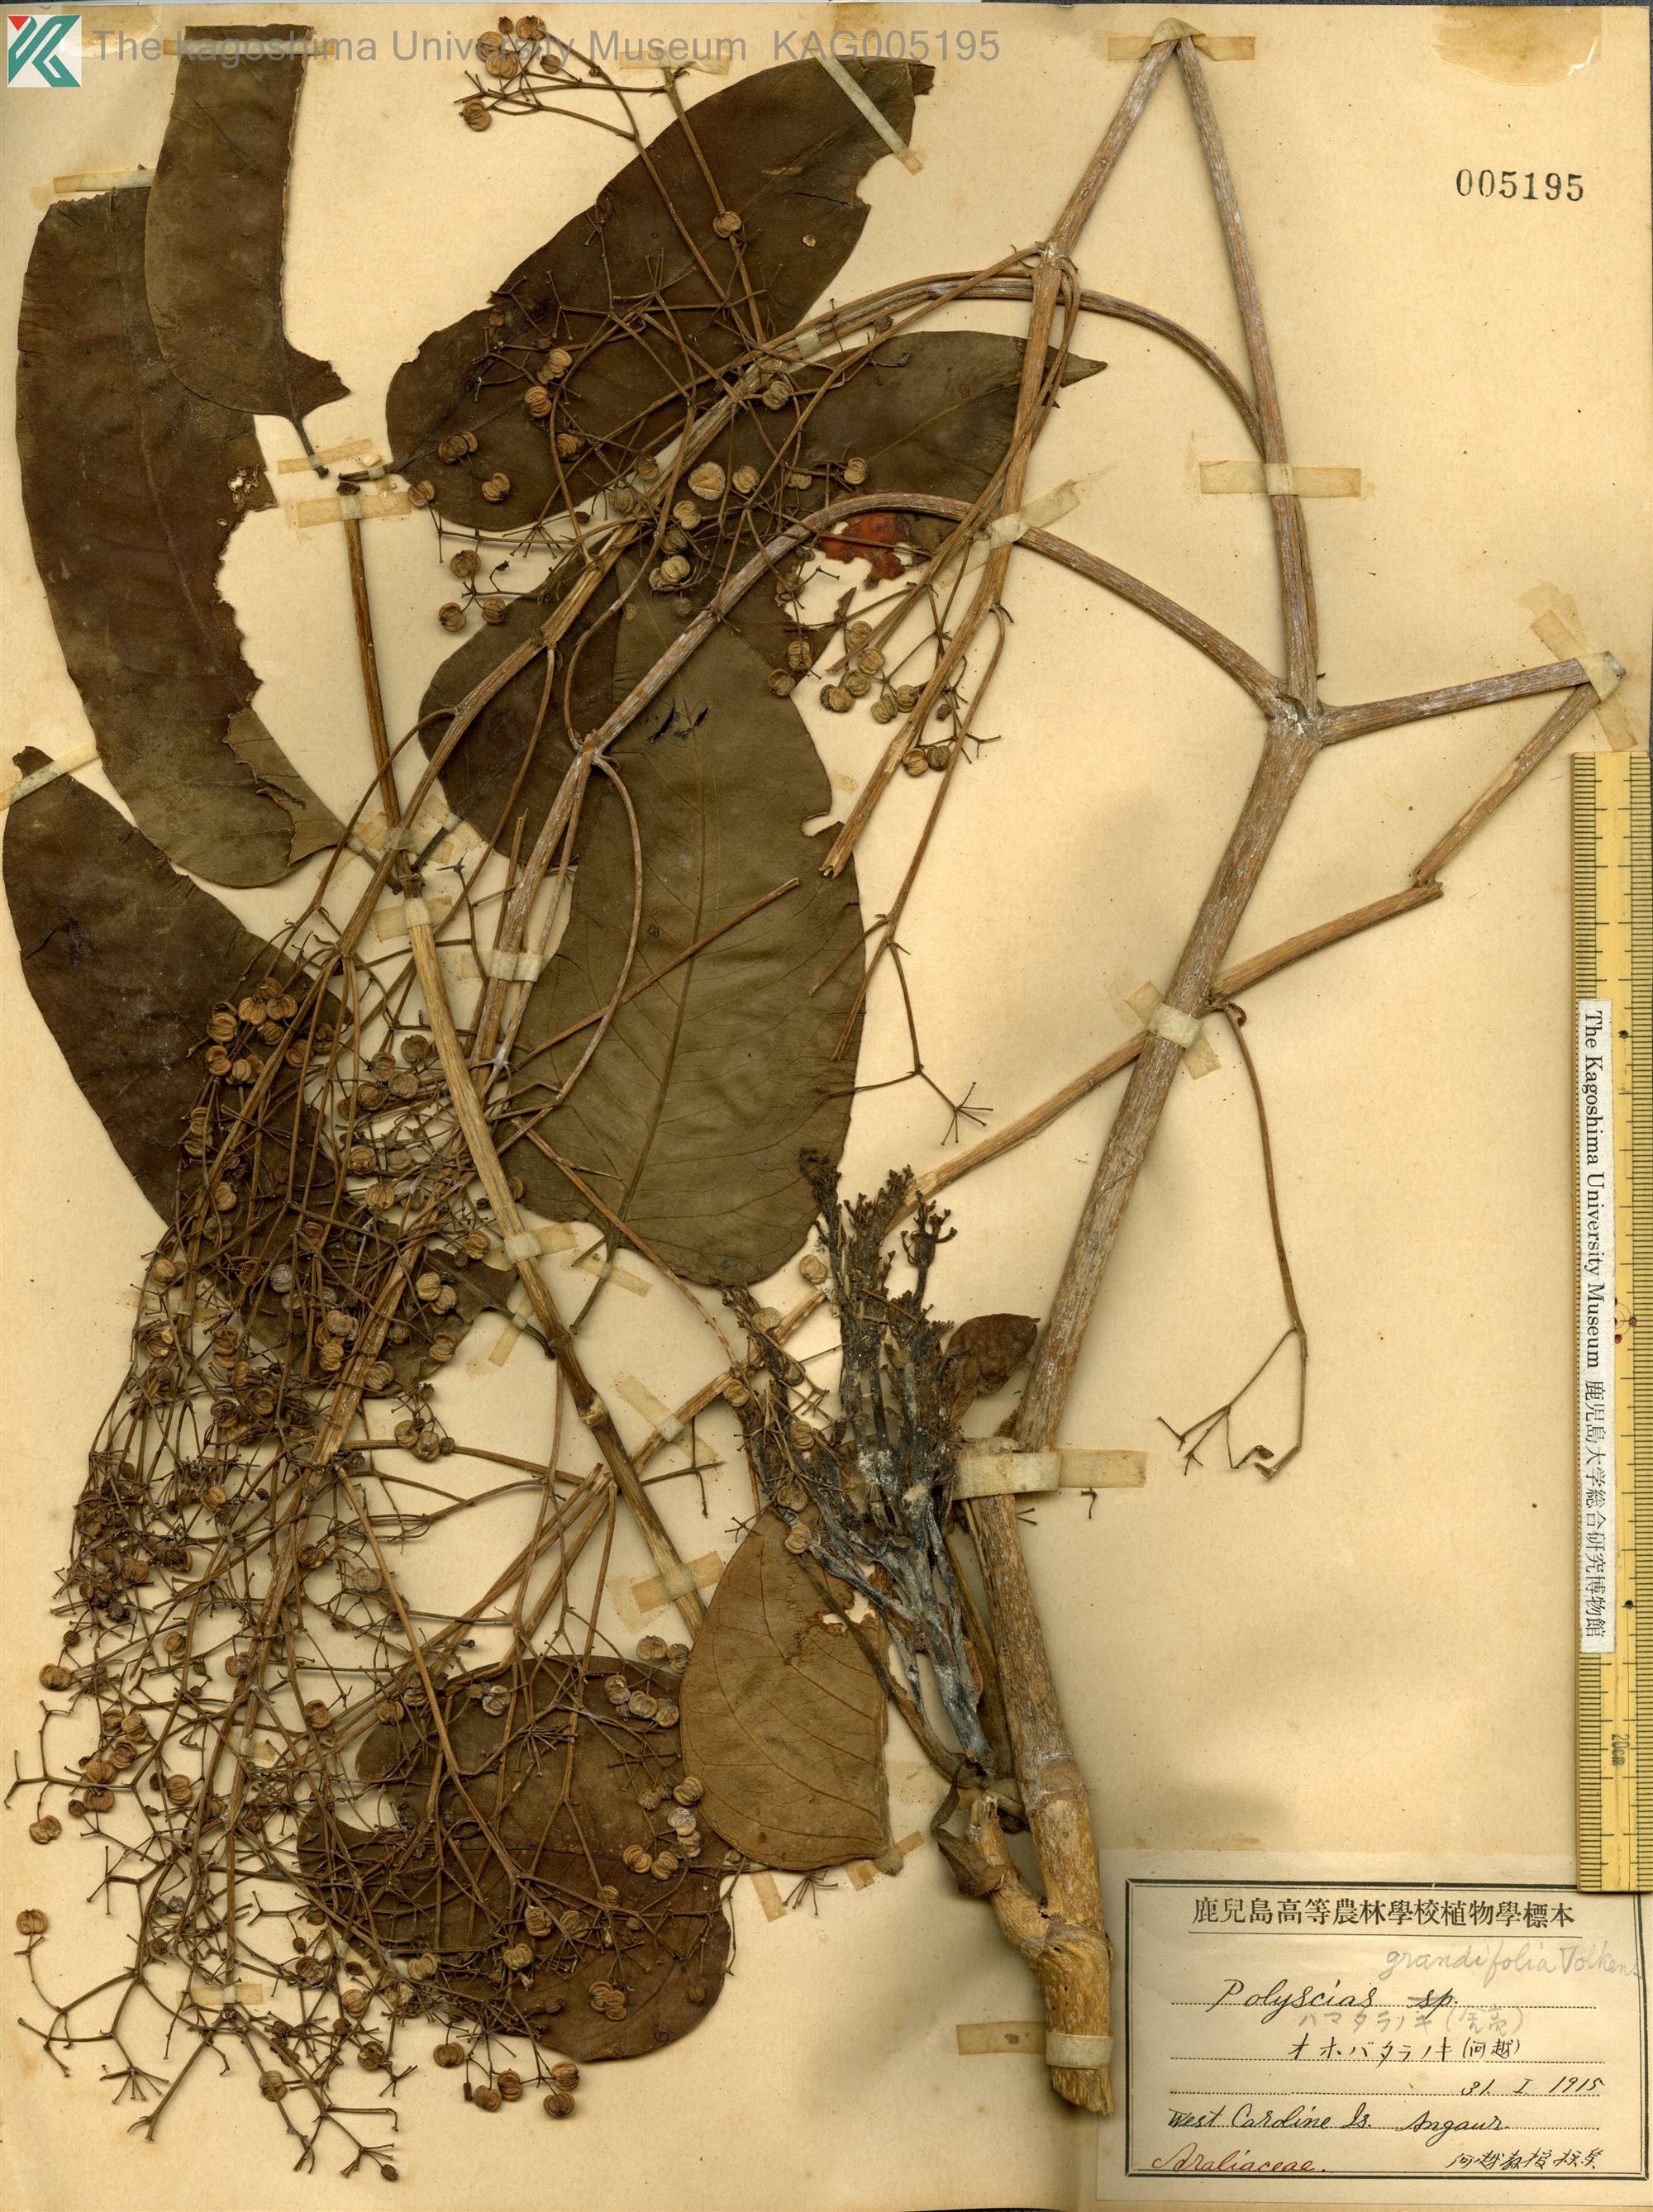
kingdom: Plantae
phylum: Tracheophyta
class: Magnoliopsida
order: Apiales
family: Araliaceae
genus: Polyscias
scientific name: Polyscias macgillivrayi
